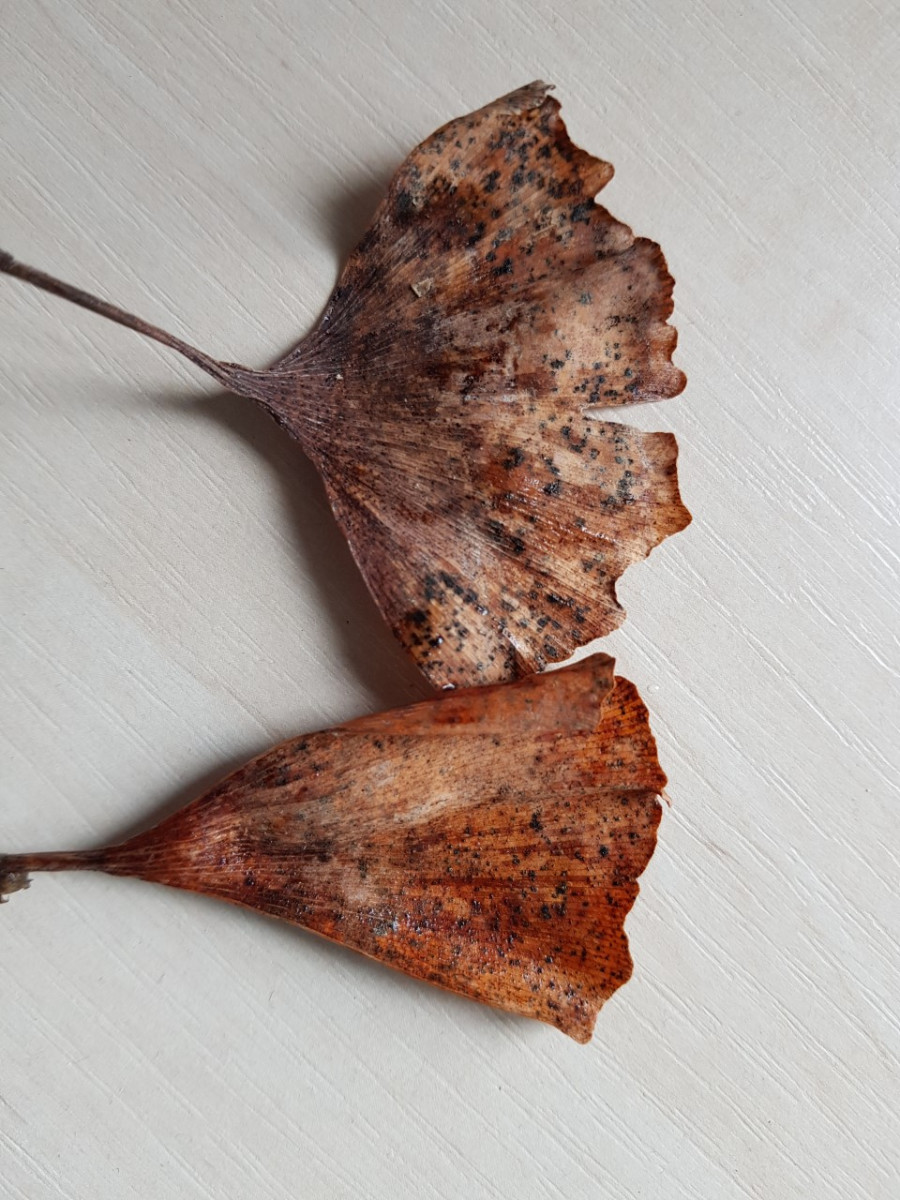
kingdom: Fungi
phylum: Basidiomycota
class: Wallemiomycetes
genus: Bartheletia
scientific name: Bartheletia paradoxa
